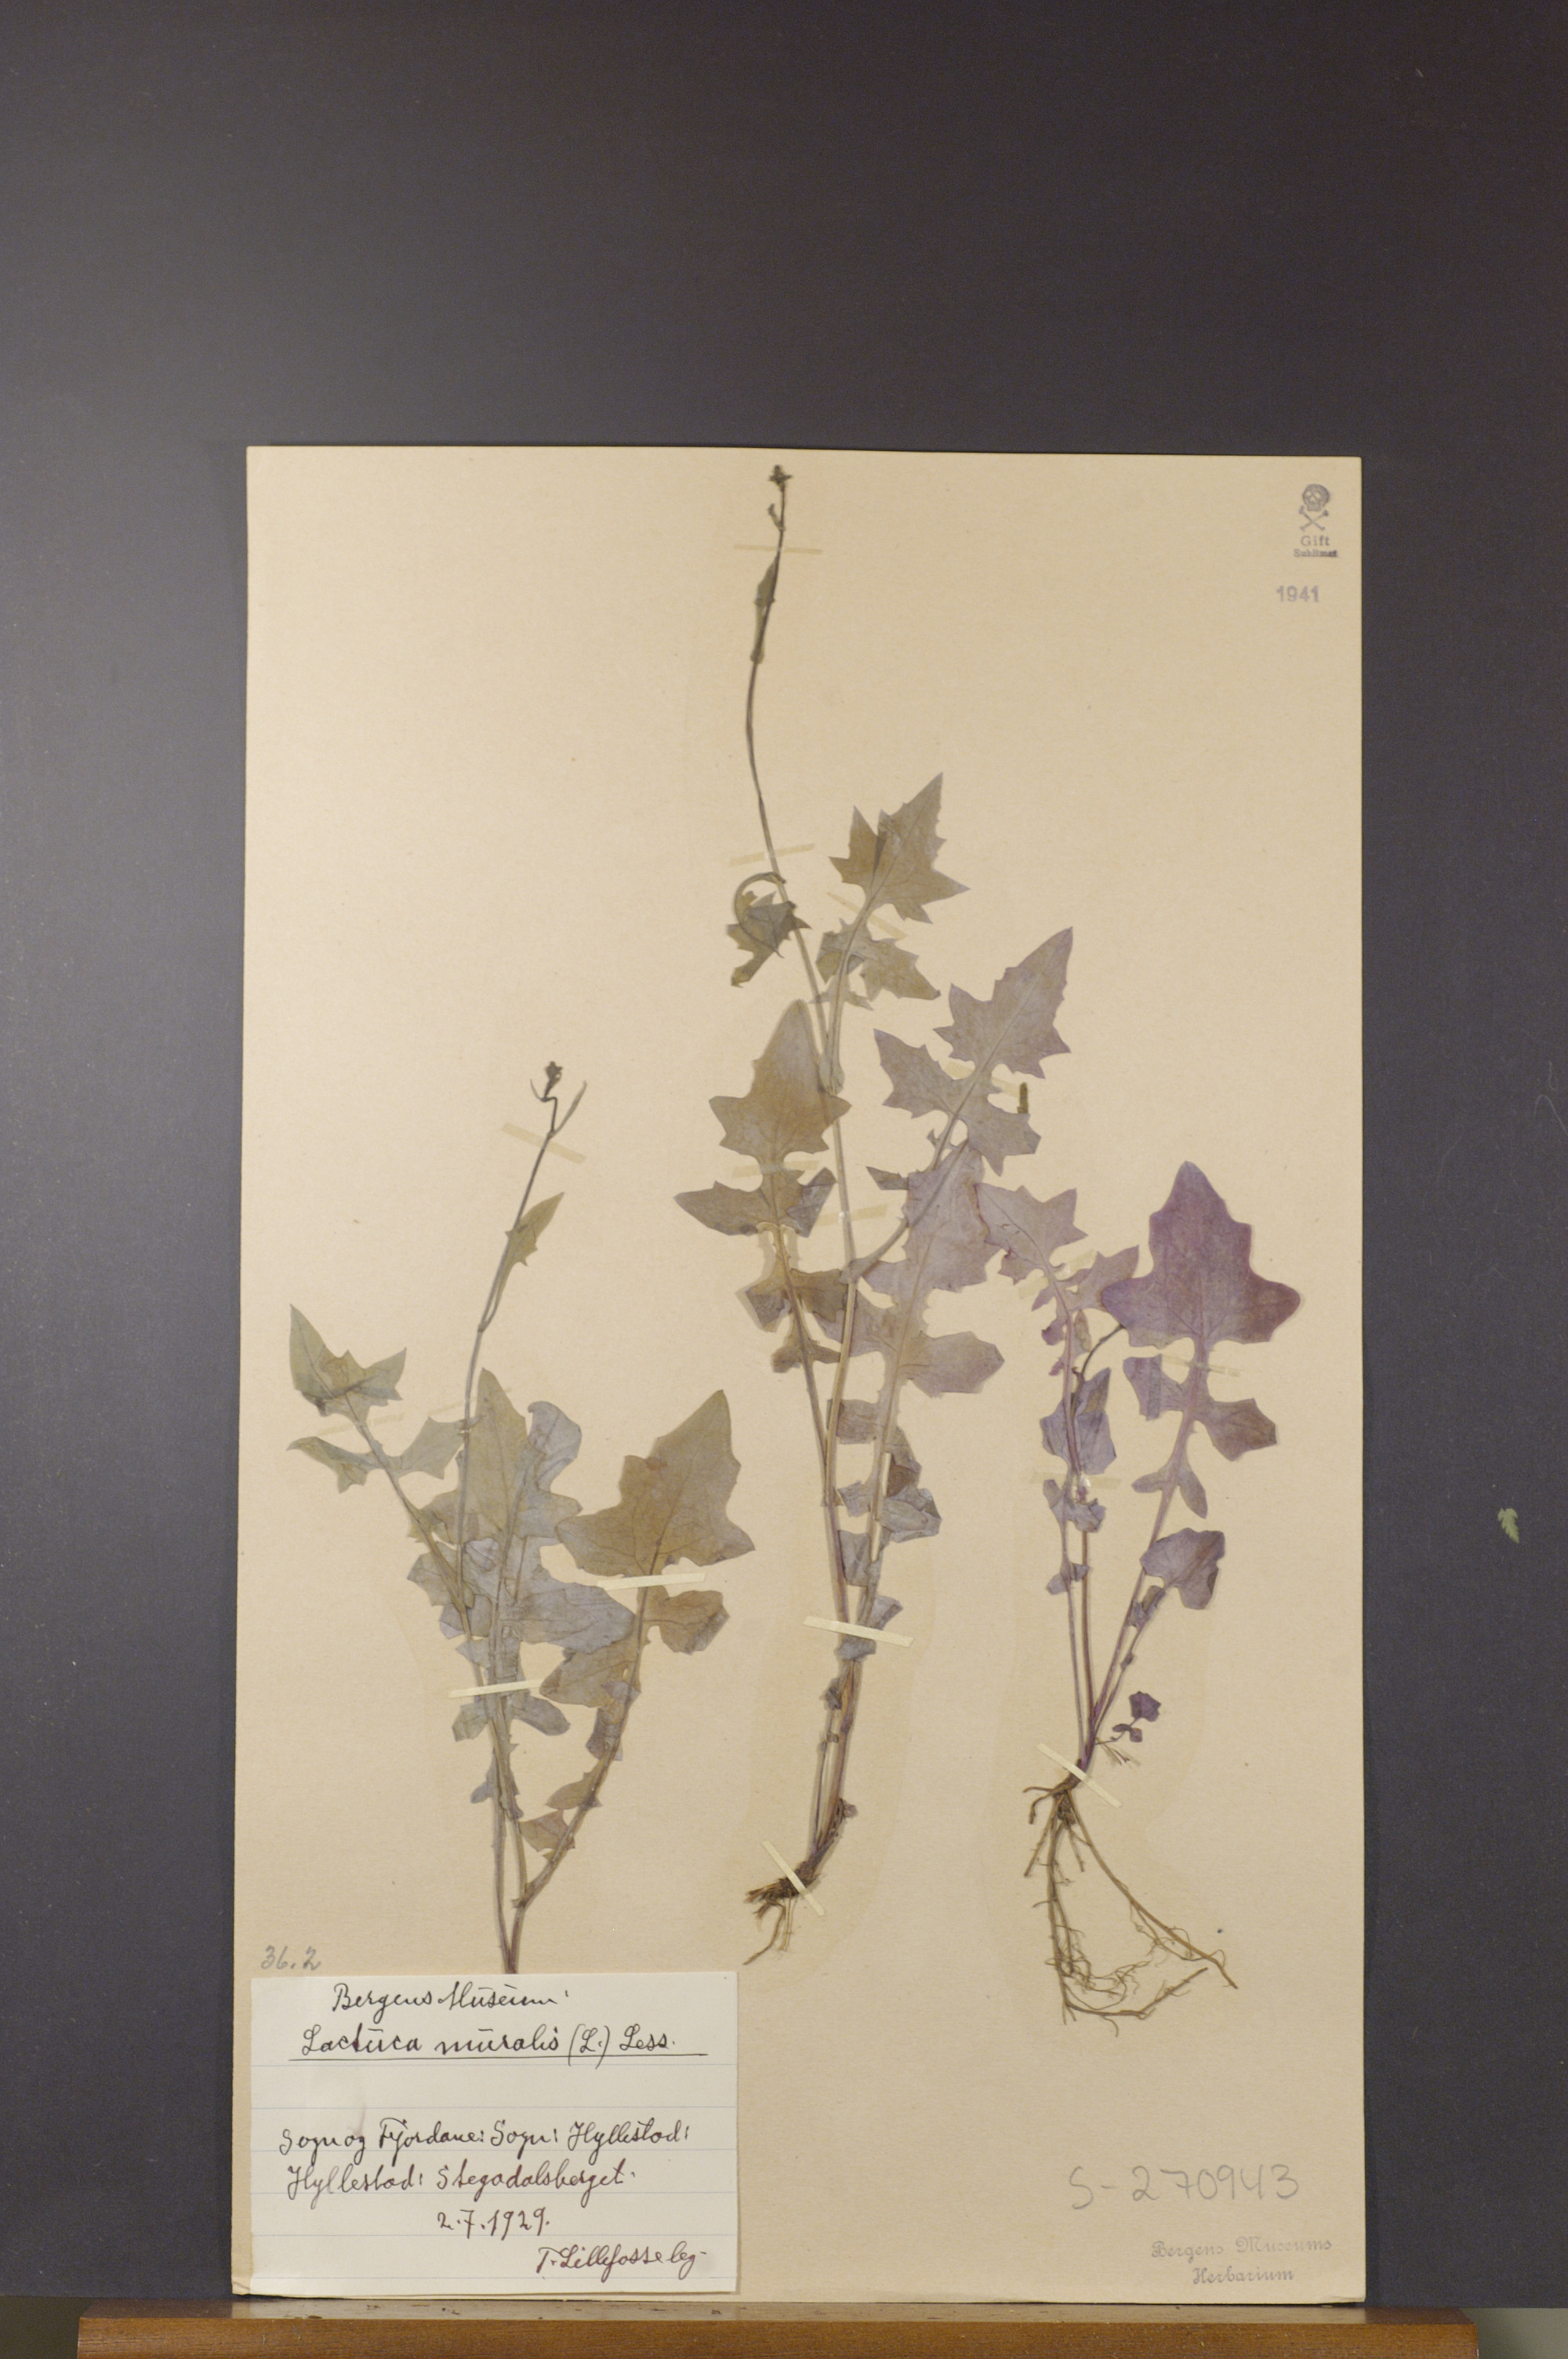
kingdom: Plantae
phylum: Tracheophyta
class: Magnoliopsida
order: Asterales
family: Asteraceae
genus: Mycelis
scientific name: Mycelis muralis
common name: Wall lettuce
